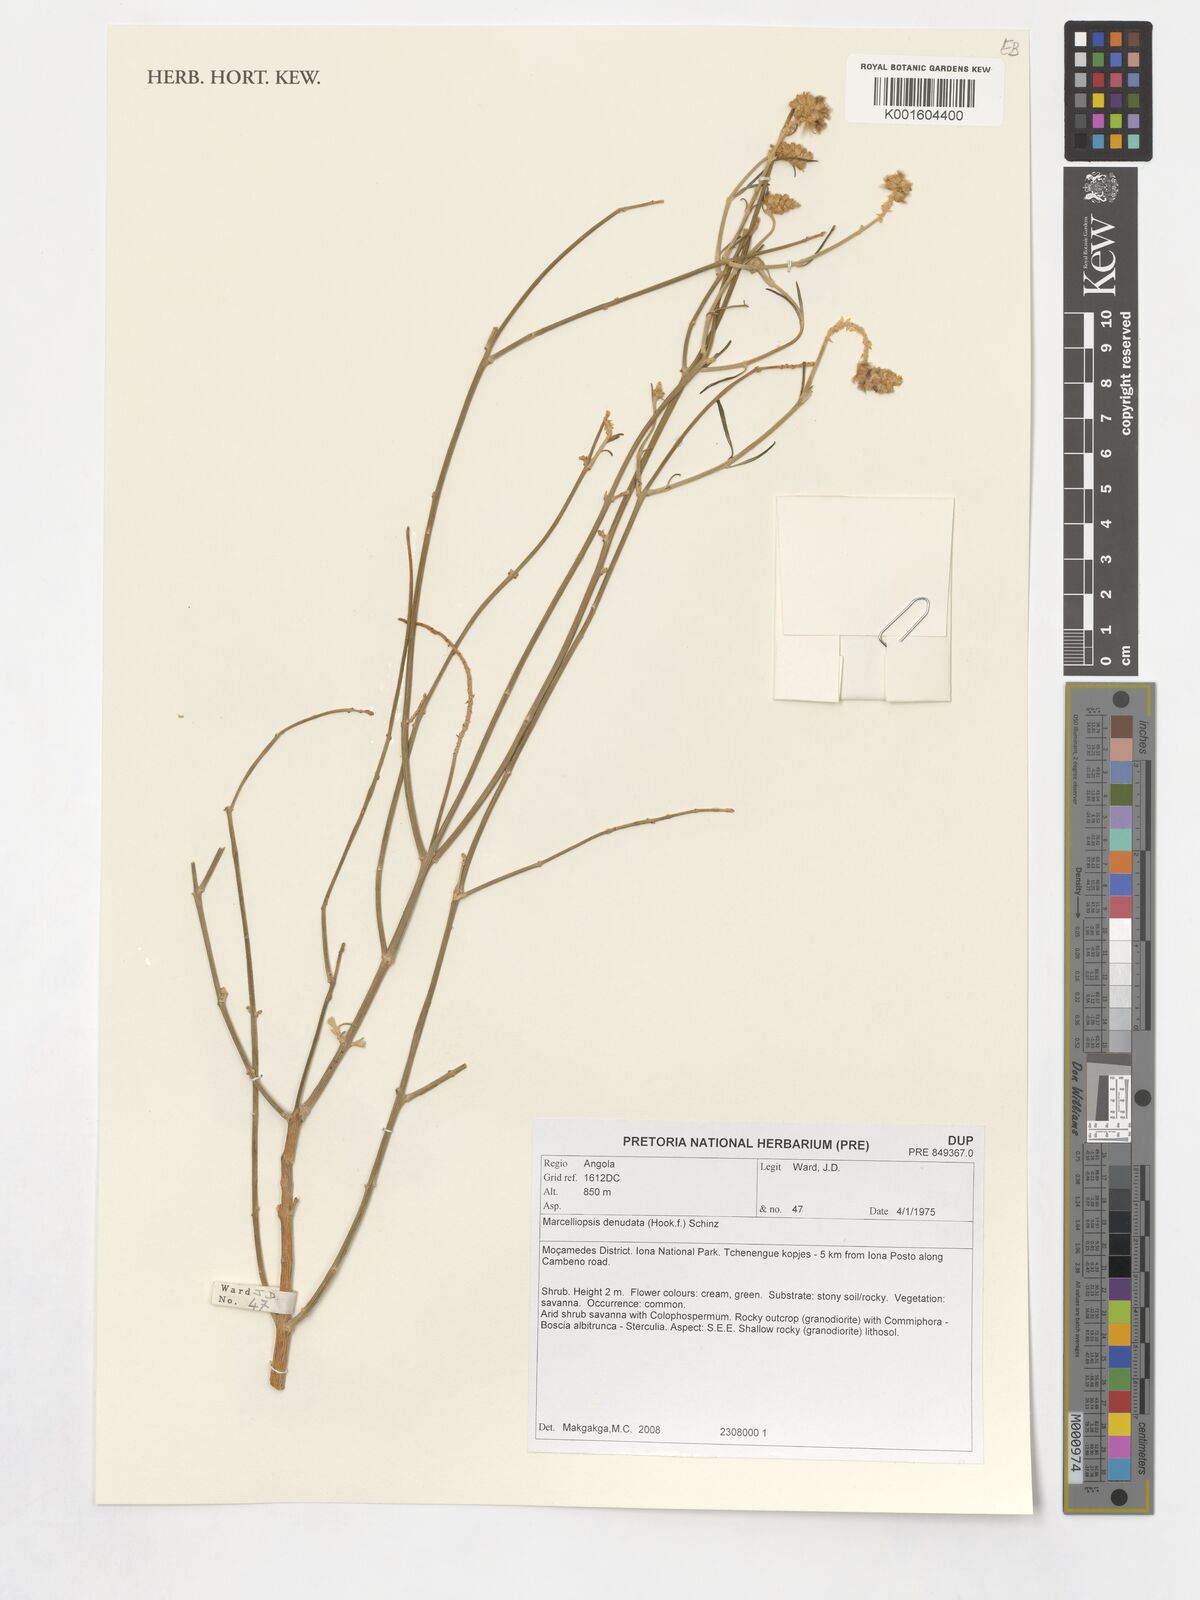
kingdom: Plantae
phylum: Tracheophyta
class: Magnoliopsida
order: Caryophyllales
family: Amaranthaceae
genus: Marcelliopsis
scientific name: Marcelliopsis denudata
